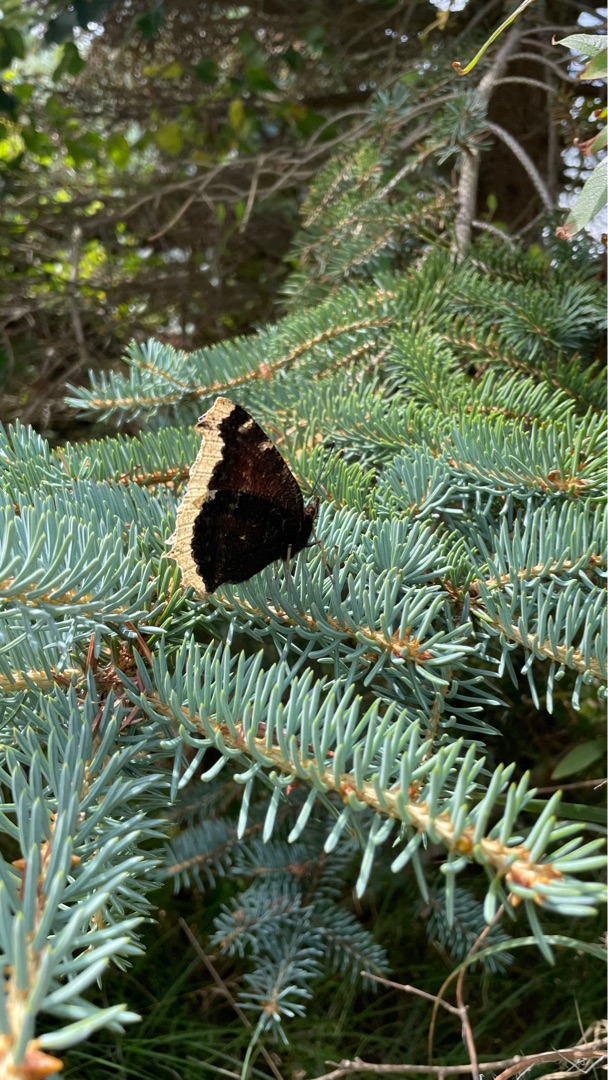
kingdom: Animalia
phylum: Arthropoda
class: Insecta
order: Lepidoptera
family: Nymphalidae
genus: Nymphalis
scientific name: Nymphalis antiopa
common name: Sørgekåbe
